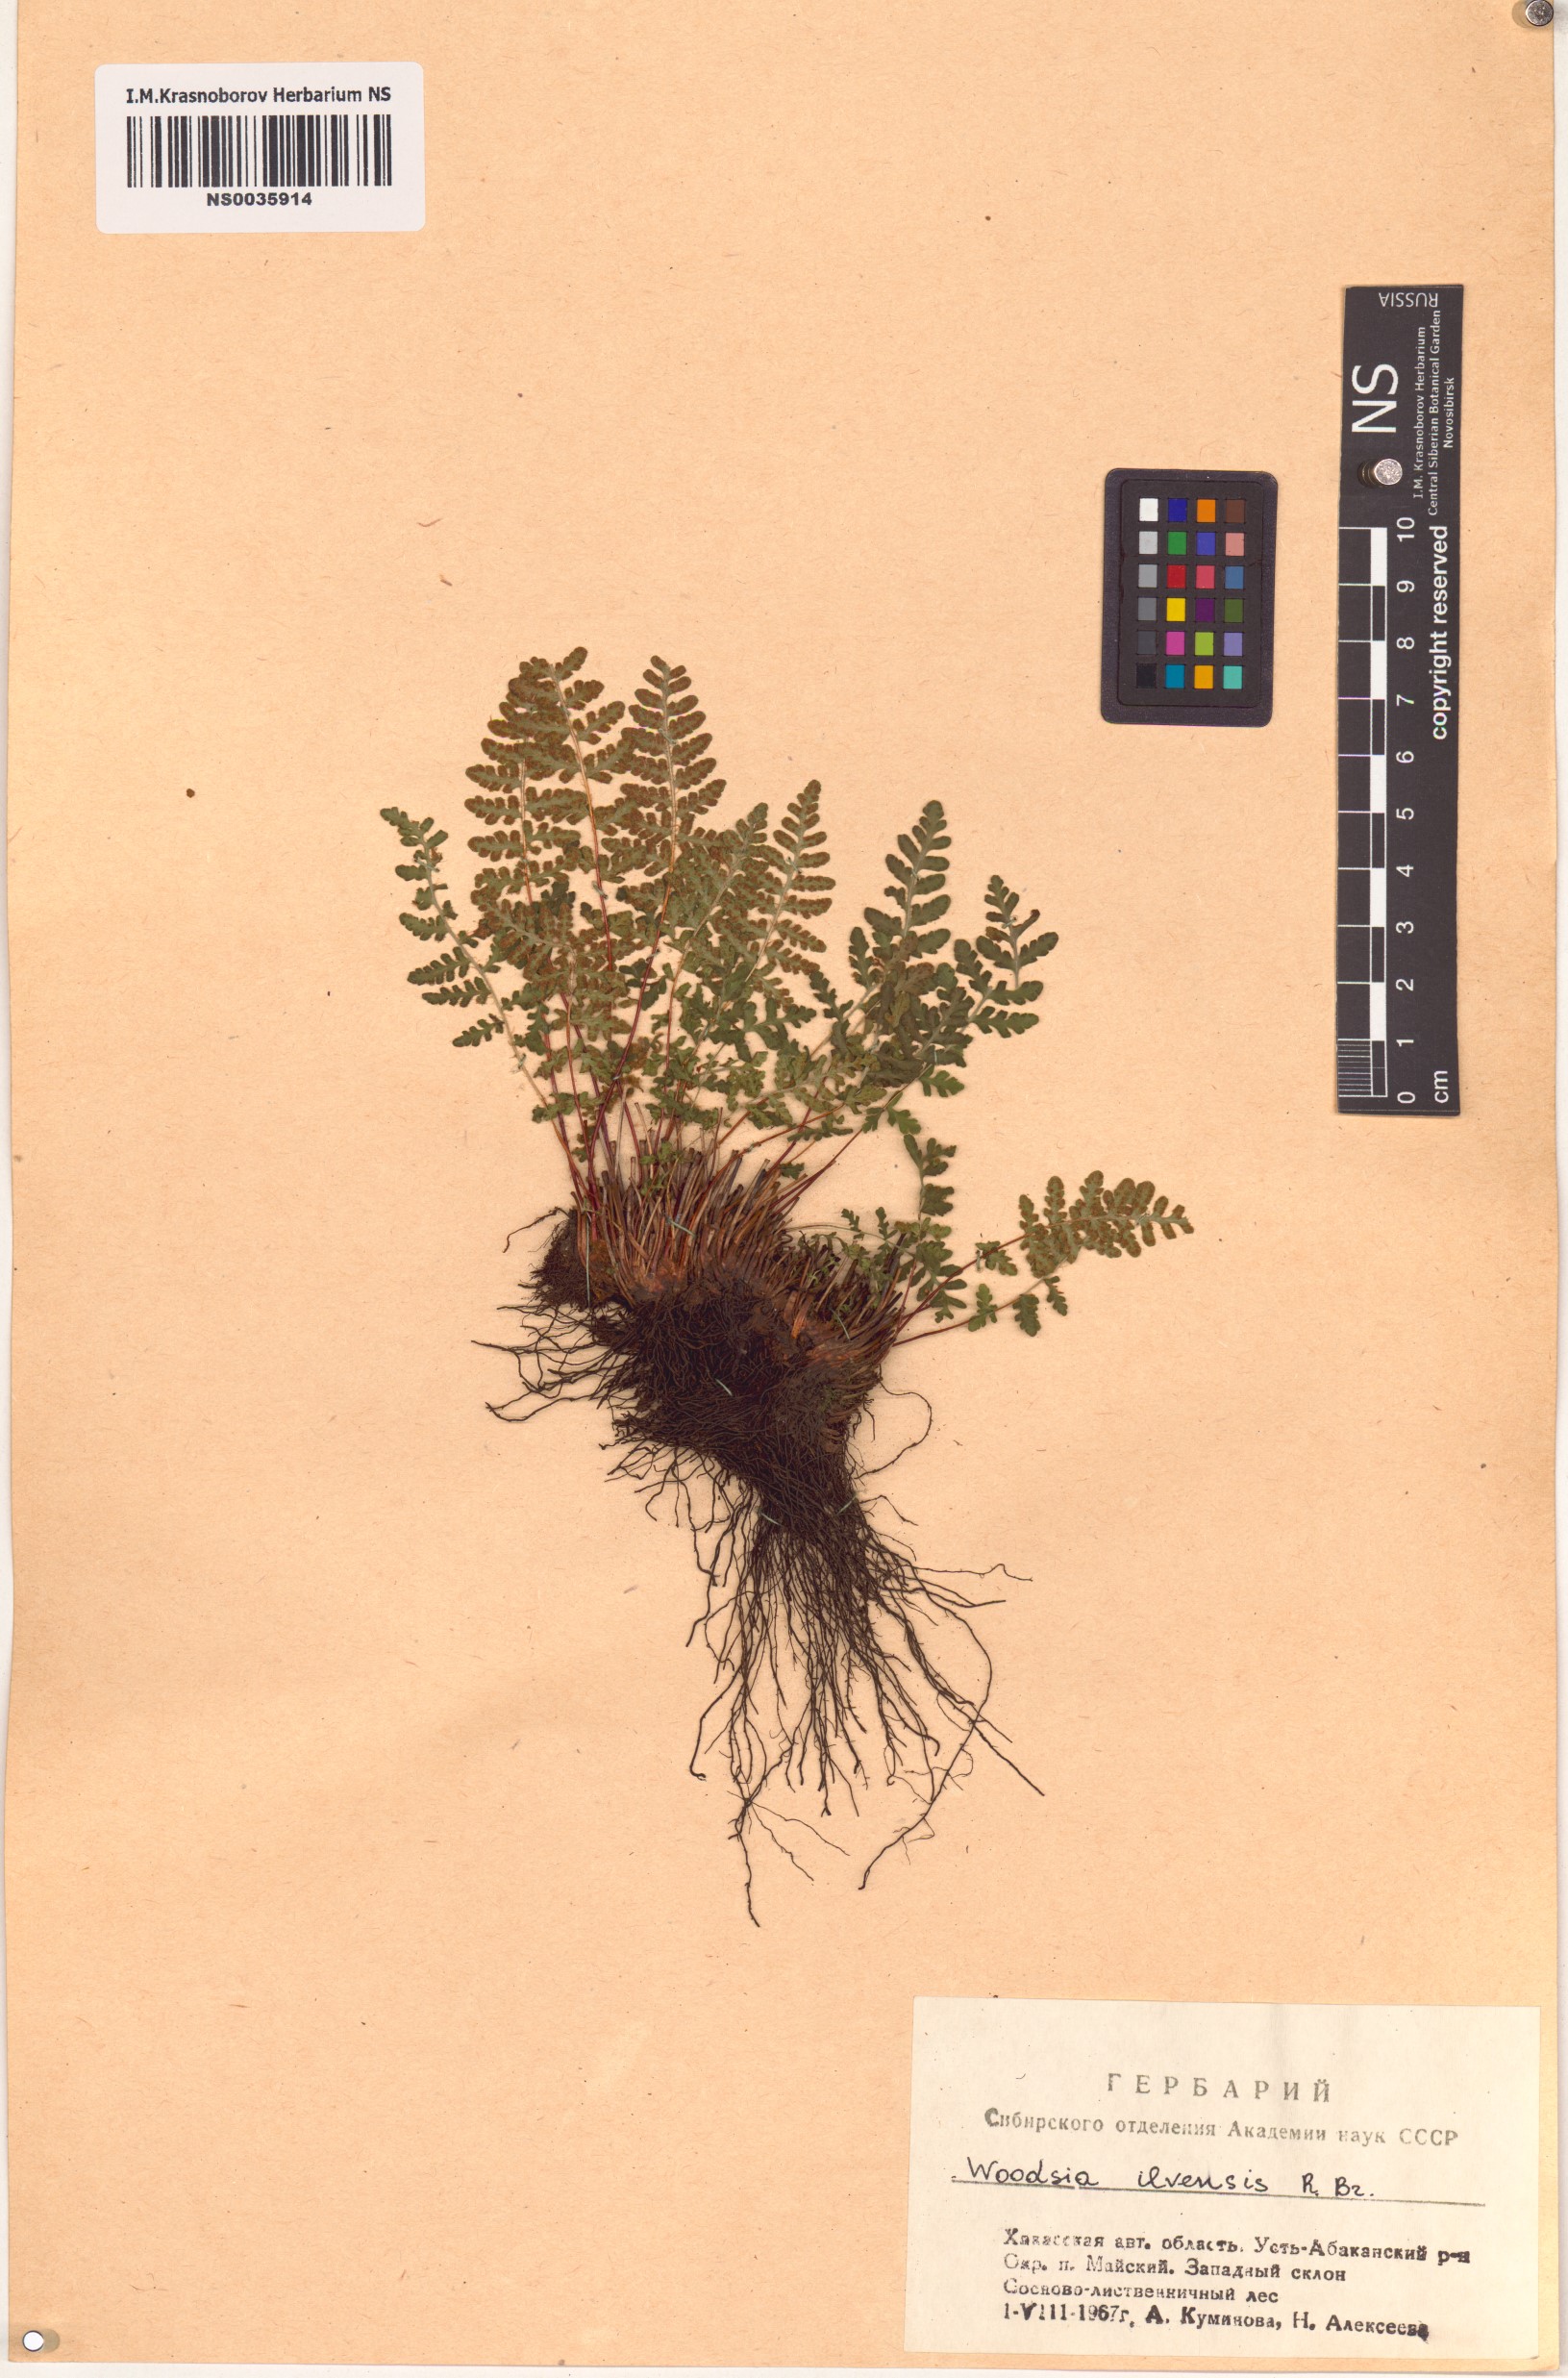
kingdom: Plantae
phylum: Tracheophyta
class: Polypodiopsida
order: Polypodiales
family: Woodsiaceae
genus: Woodsia
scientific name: Woodsia ilvensis
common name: Fragrant woodsia
